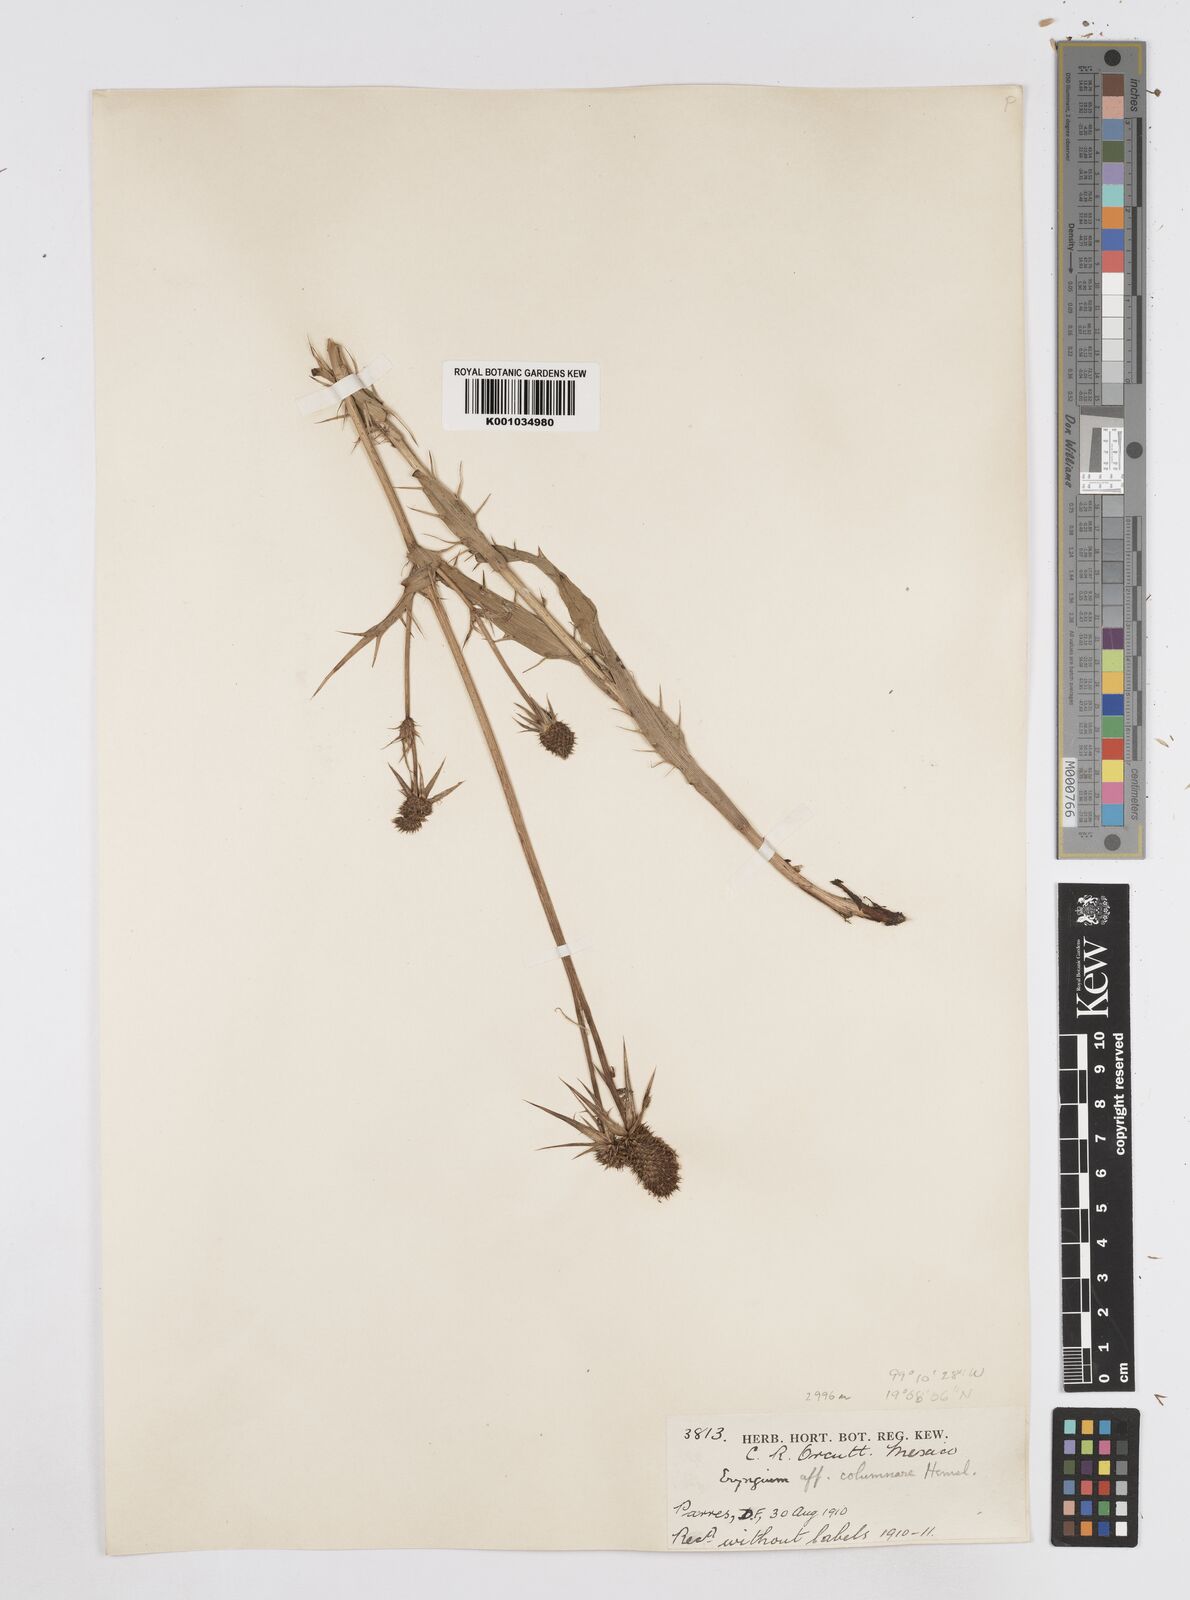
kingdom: Plantae
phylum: Tracheophyta
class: Magnoliopsida
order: Apiales
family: Apiaceae
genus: Eryngium
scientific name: Eryngium columnare
